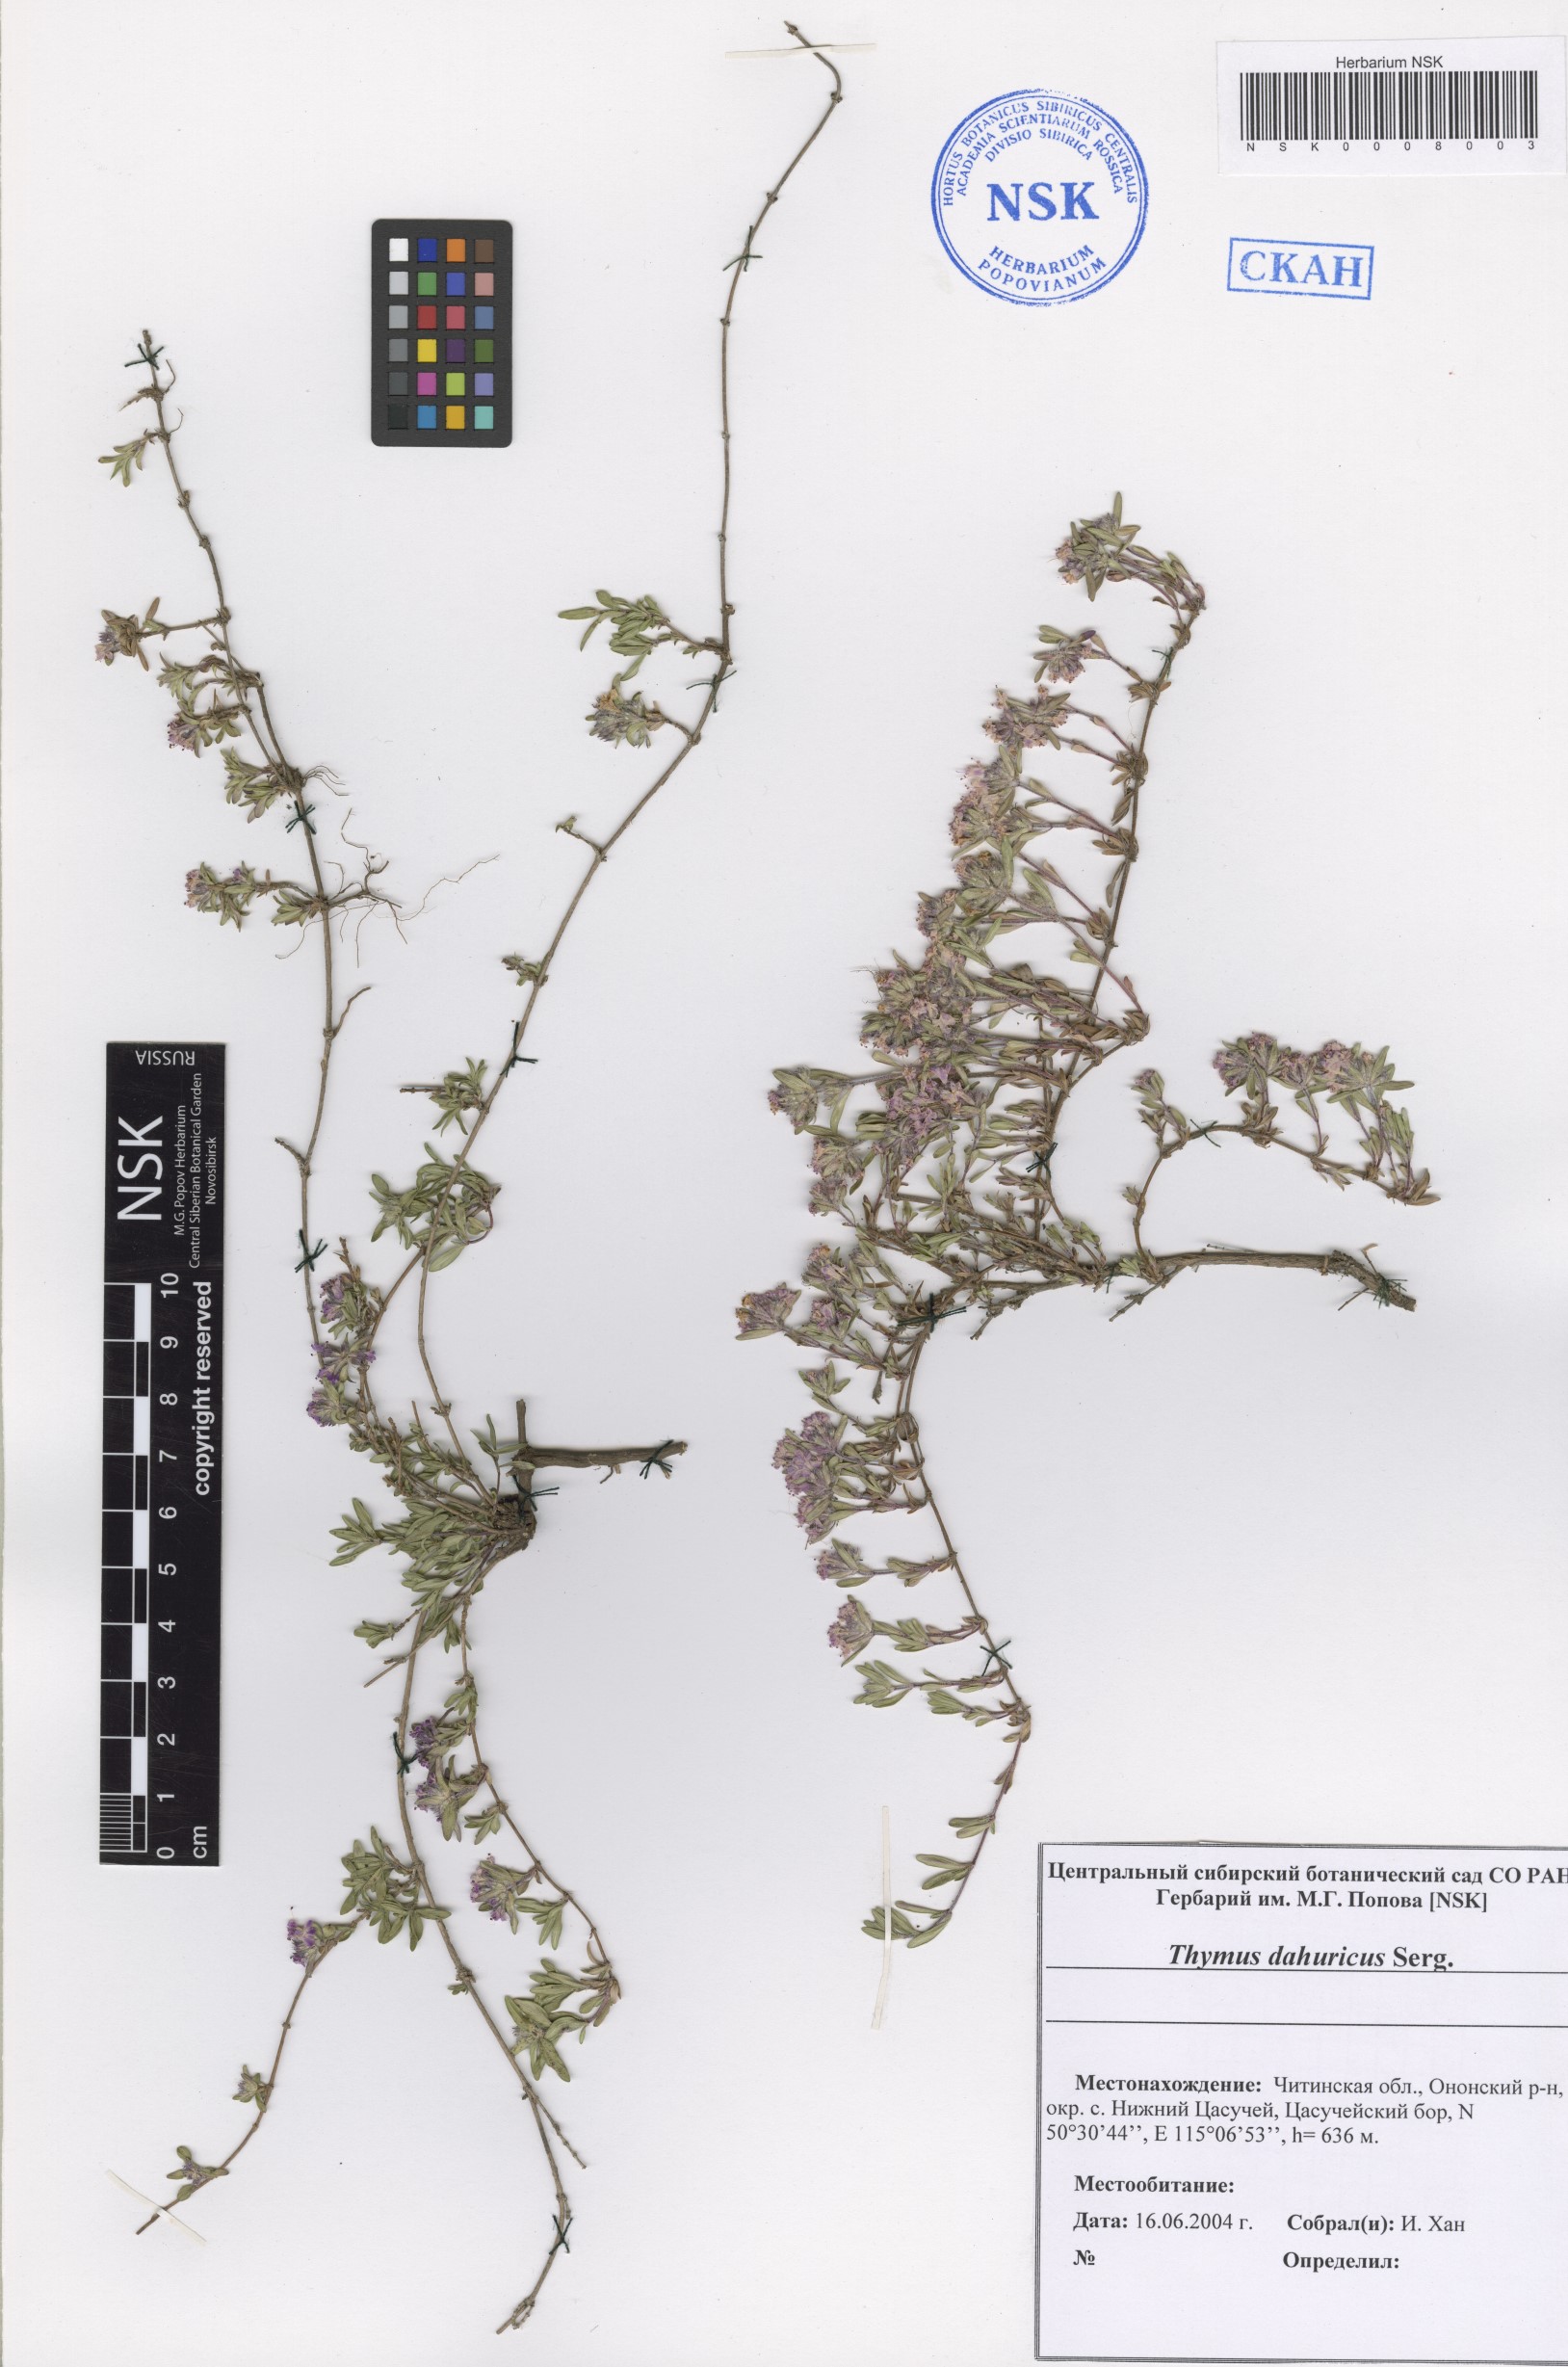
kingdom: Plantae
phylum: Tracheophyta
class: Magnoliopsida
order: Lamiales
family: Lamiaceae
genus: Thymus
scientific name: Thymus dahuricus
